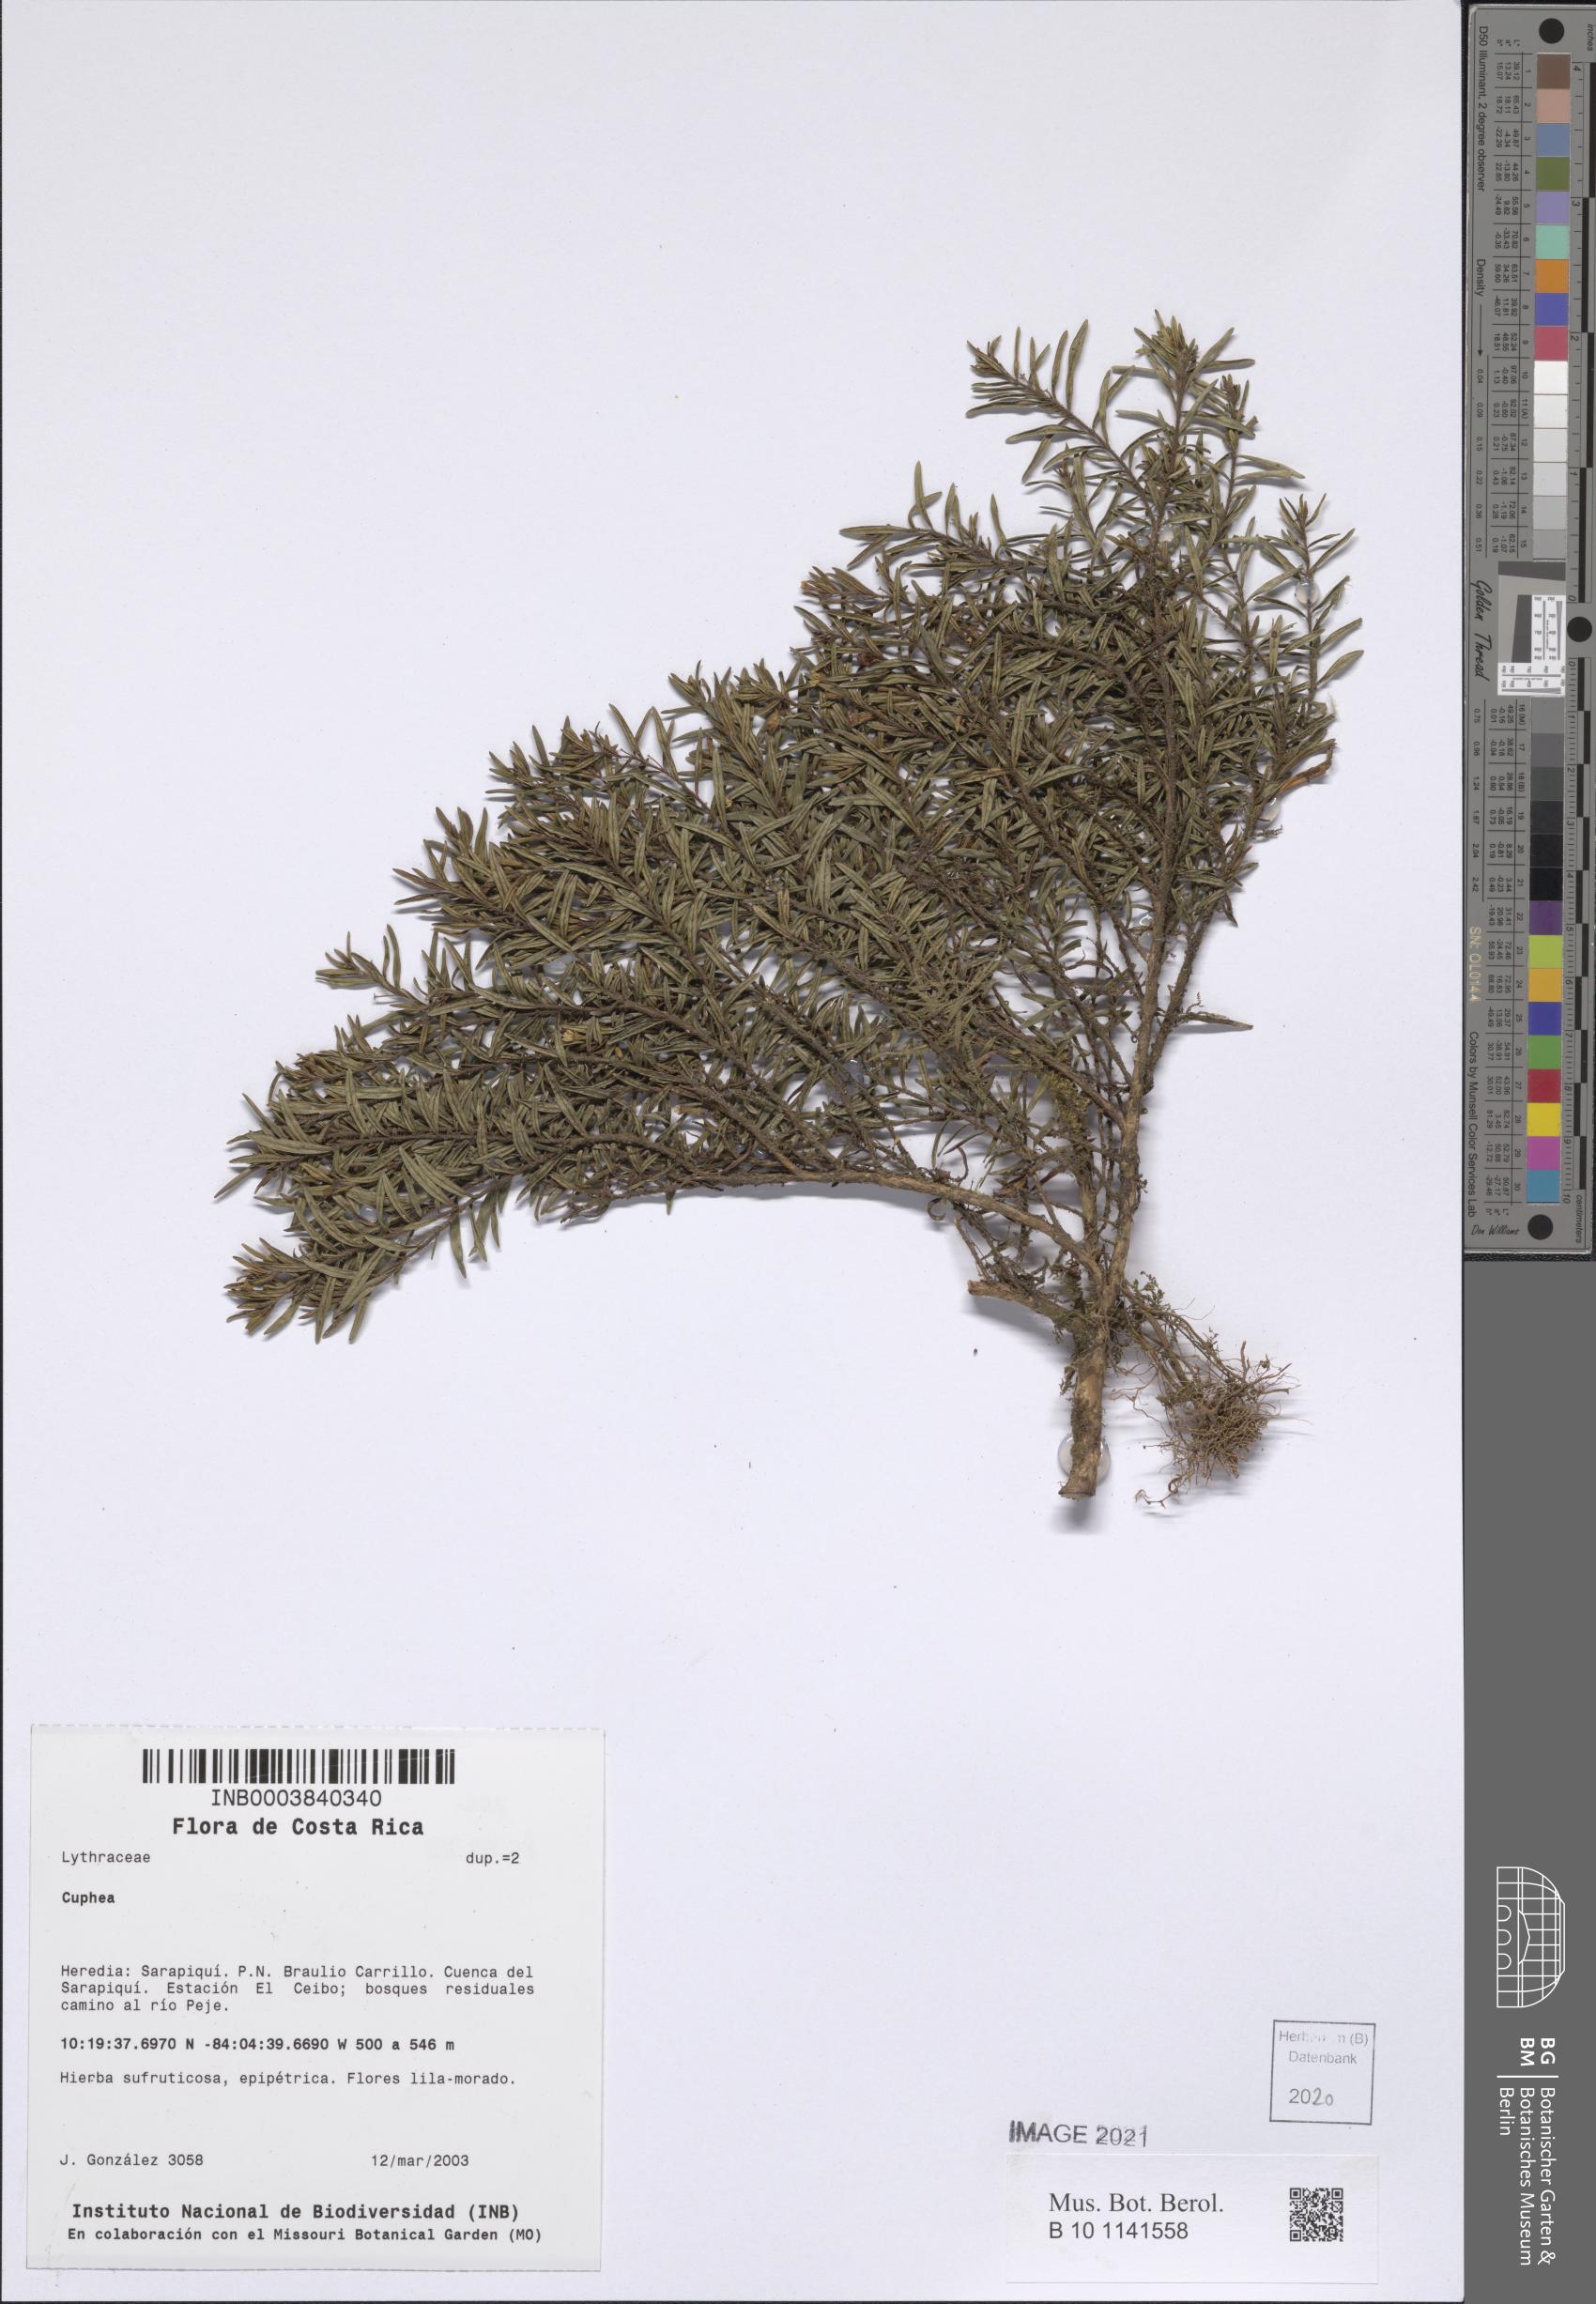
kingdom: Plantae
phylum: Tracheophyta
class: Magnoliopsida
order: Myrtales
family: Lythraceae
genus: Cuphea
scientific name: Cuphea
